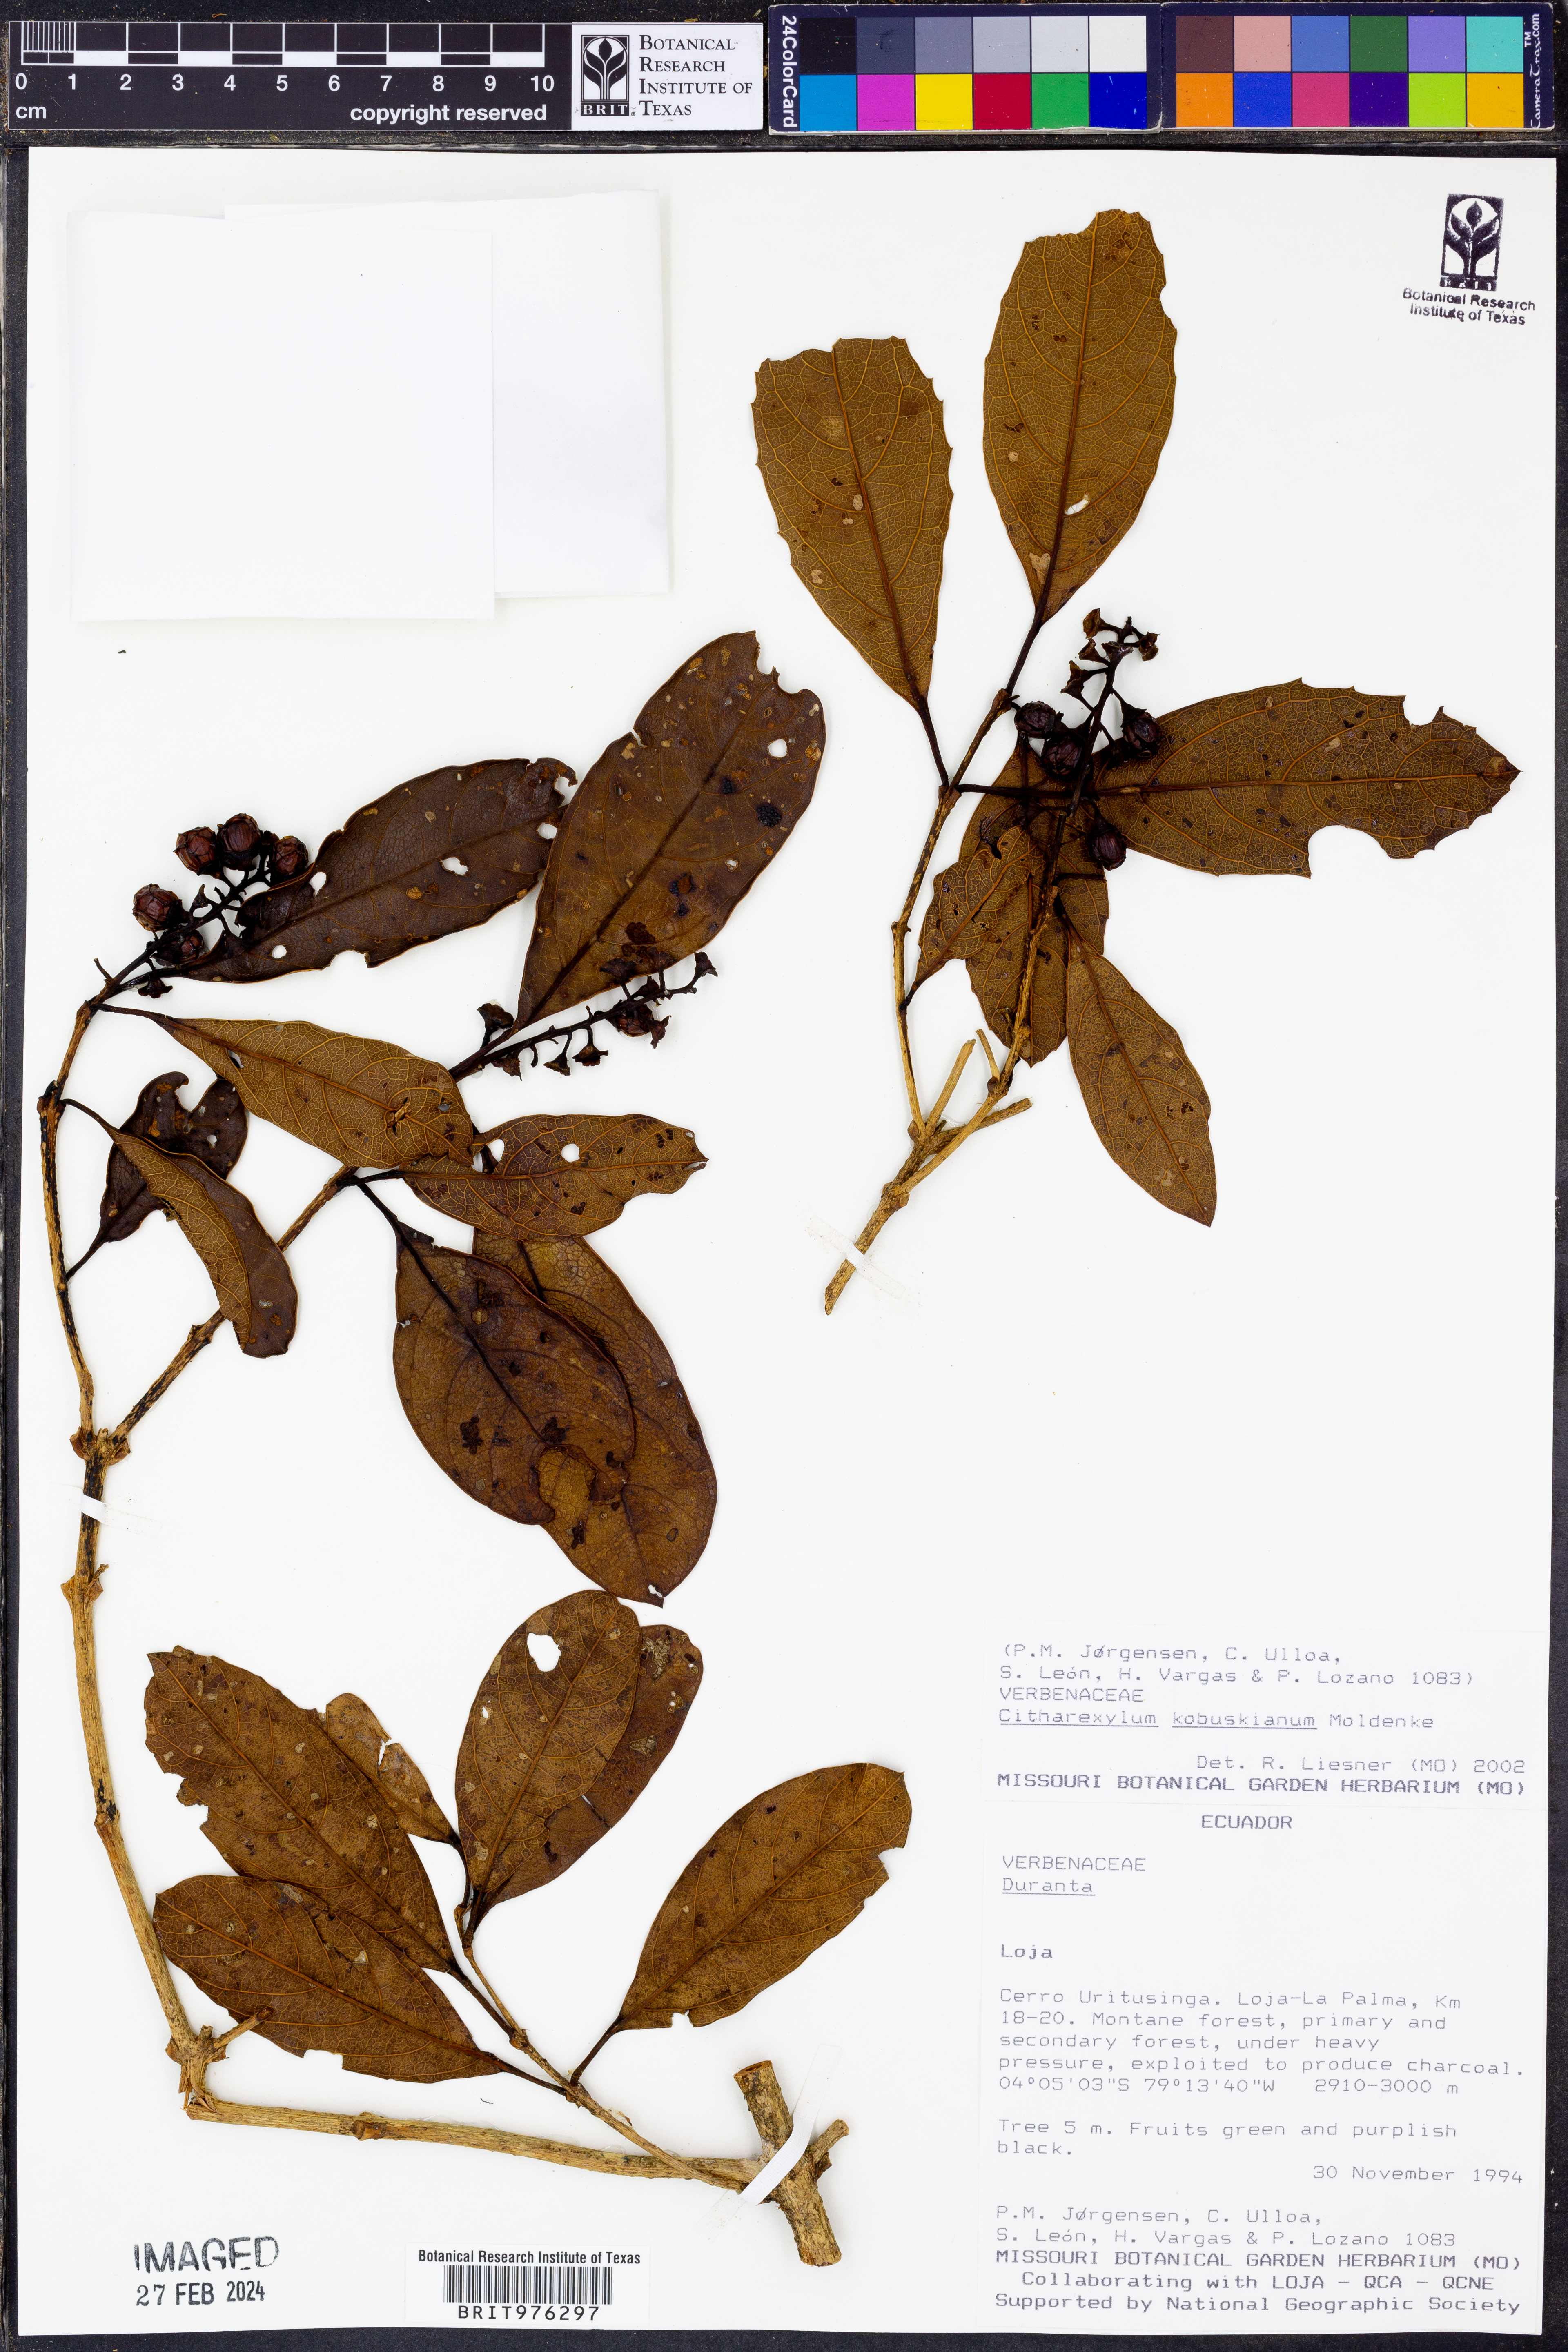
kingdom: Plantae
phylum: Tracheophyta
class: Magnoliopsida
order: Lamiales
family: Verbenaceae
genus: Citharexylum
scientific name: Citharexylum
